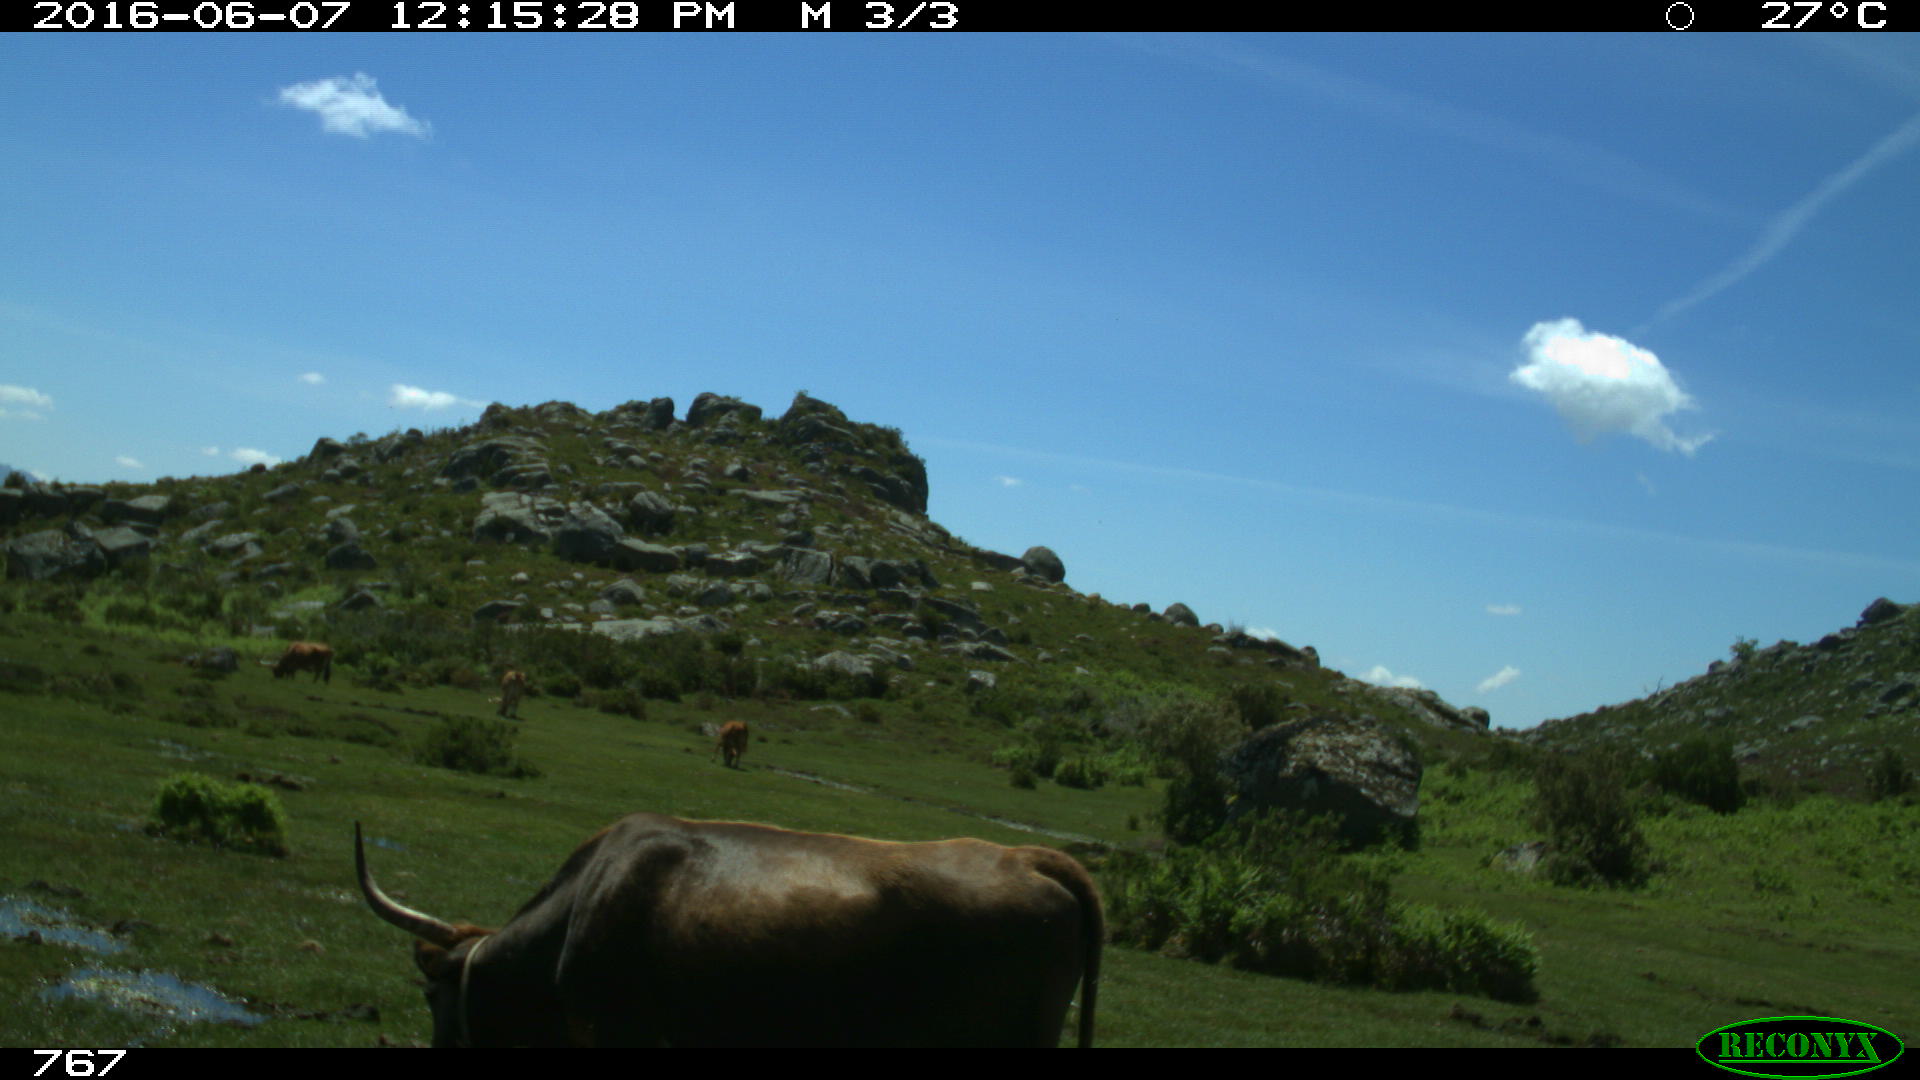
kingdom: Animalia
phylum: Chordata
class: Mammalia
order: Artiodactyla
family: Bovidae
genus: Bos
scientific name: Bos taurus
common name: Domesticated cattle
